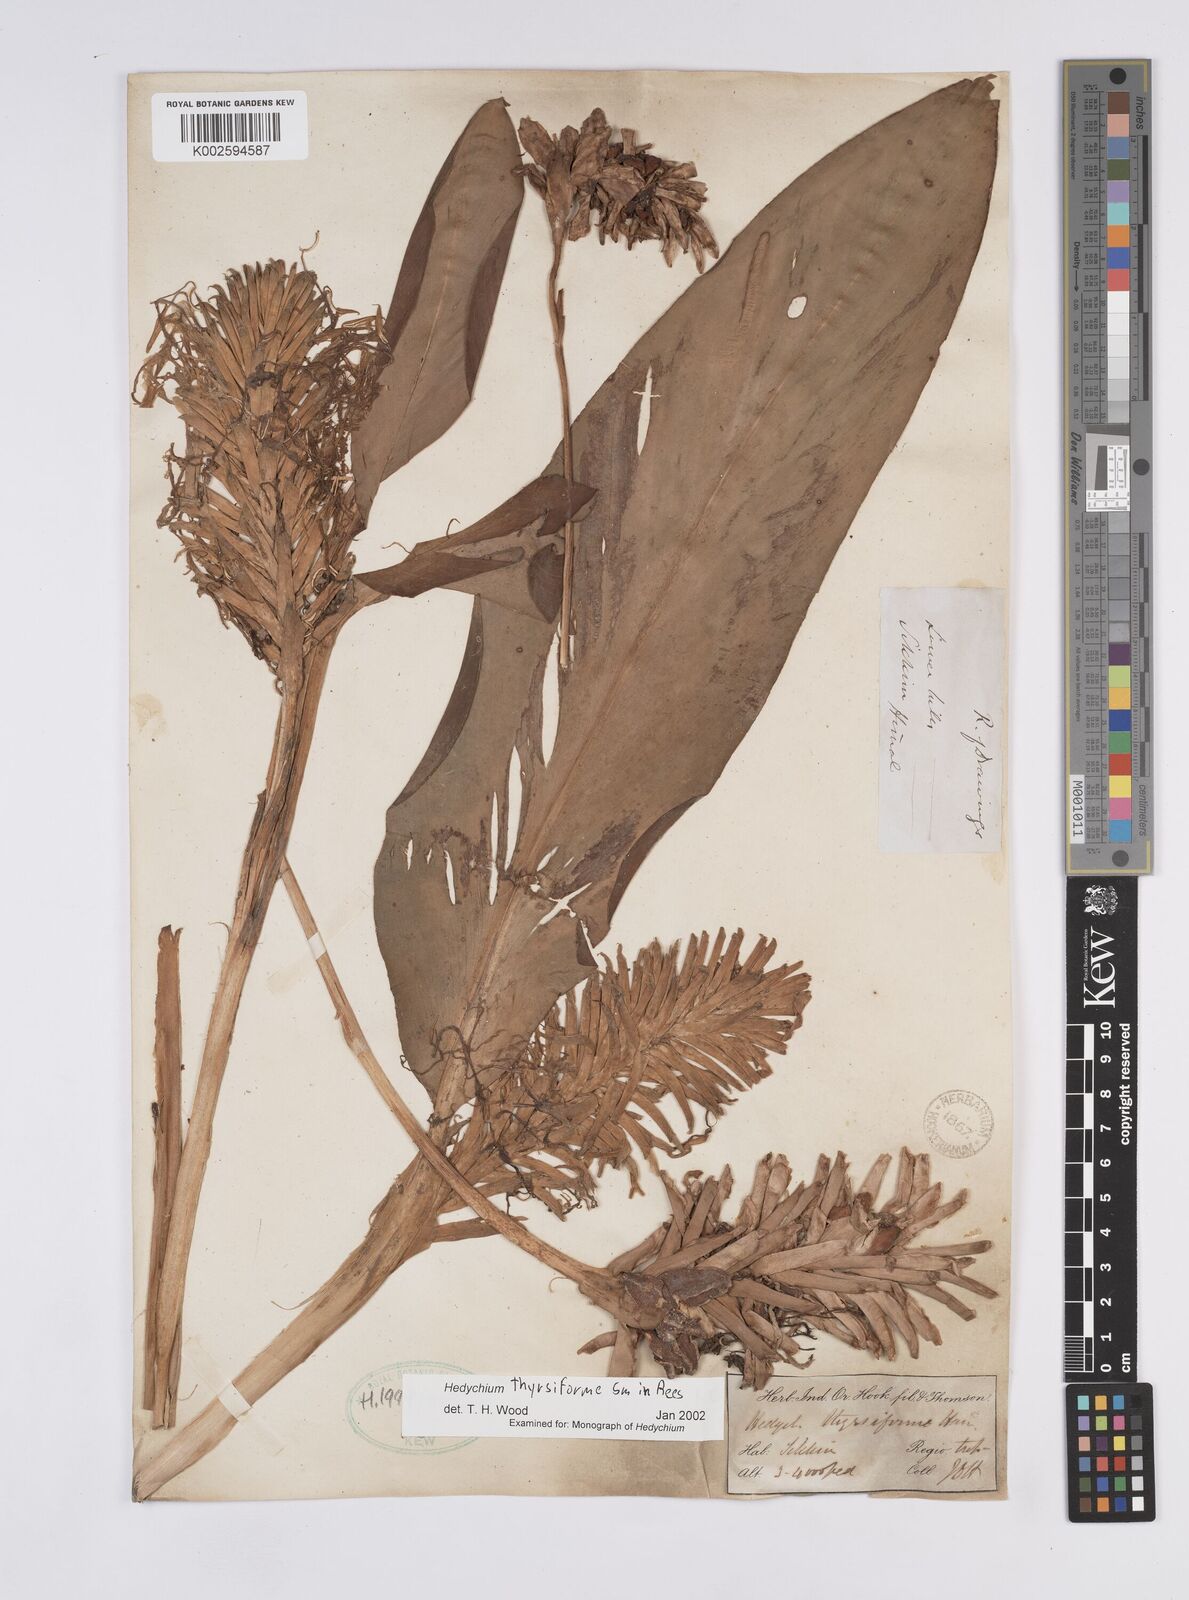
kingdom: Plantae
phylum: Tracheophyta
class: Liliopsida
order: Zingiberales
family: Zingiberaceae
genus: Hedychium
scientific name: Hedychium thyrsiforme
